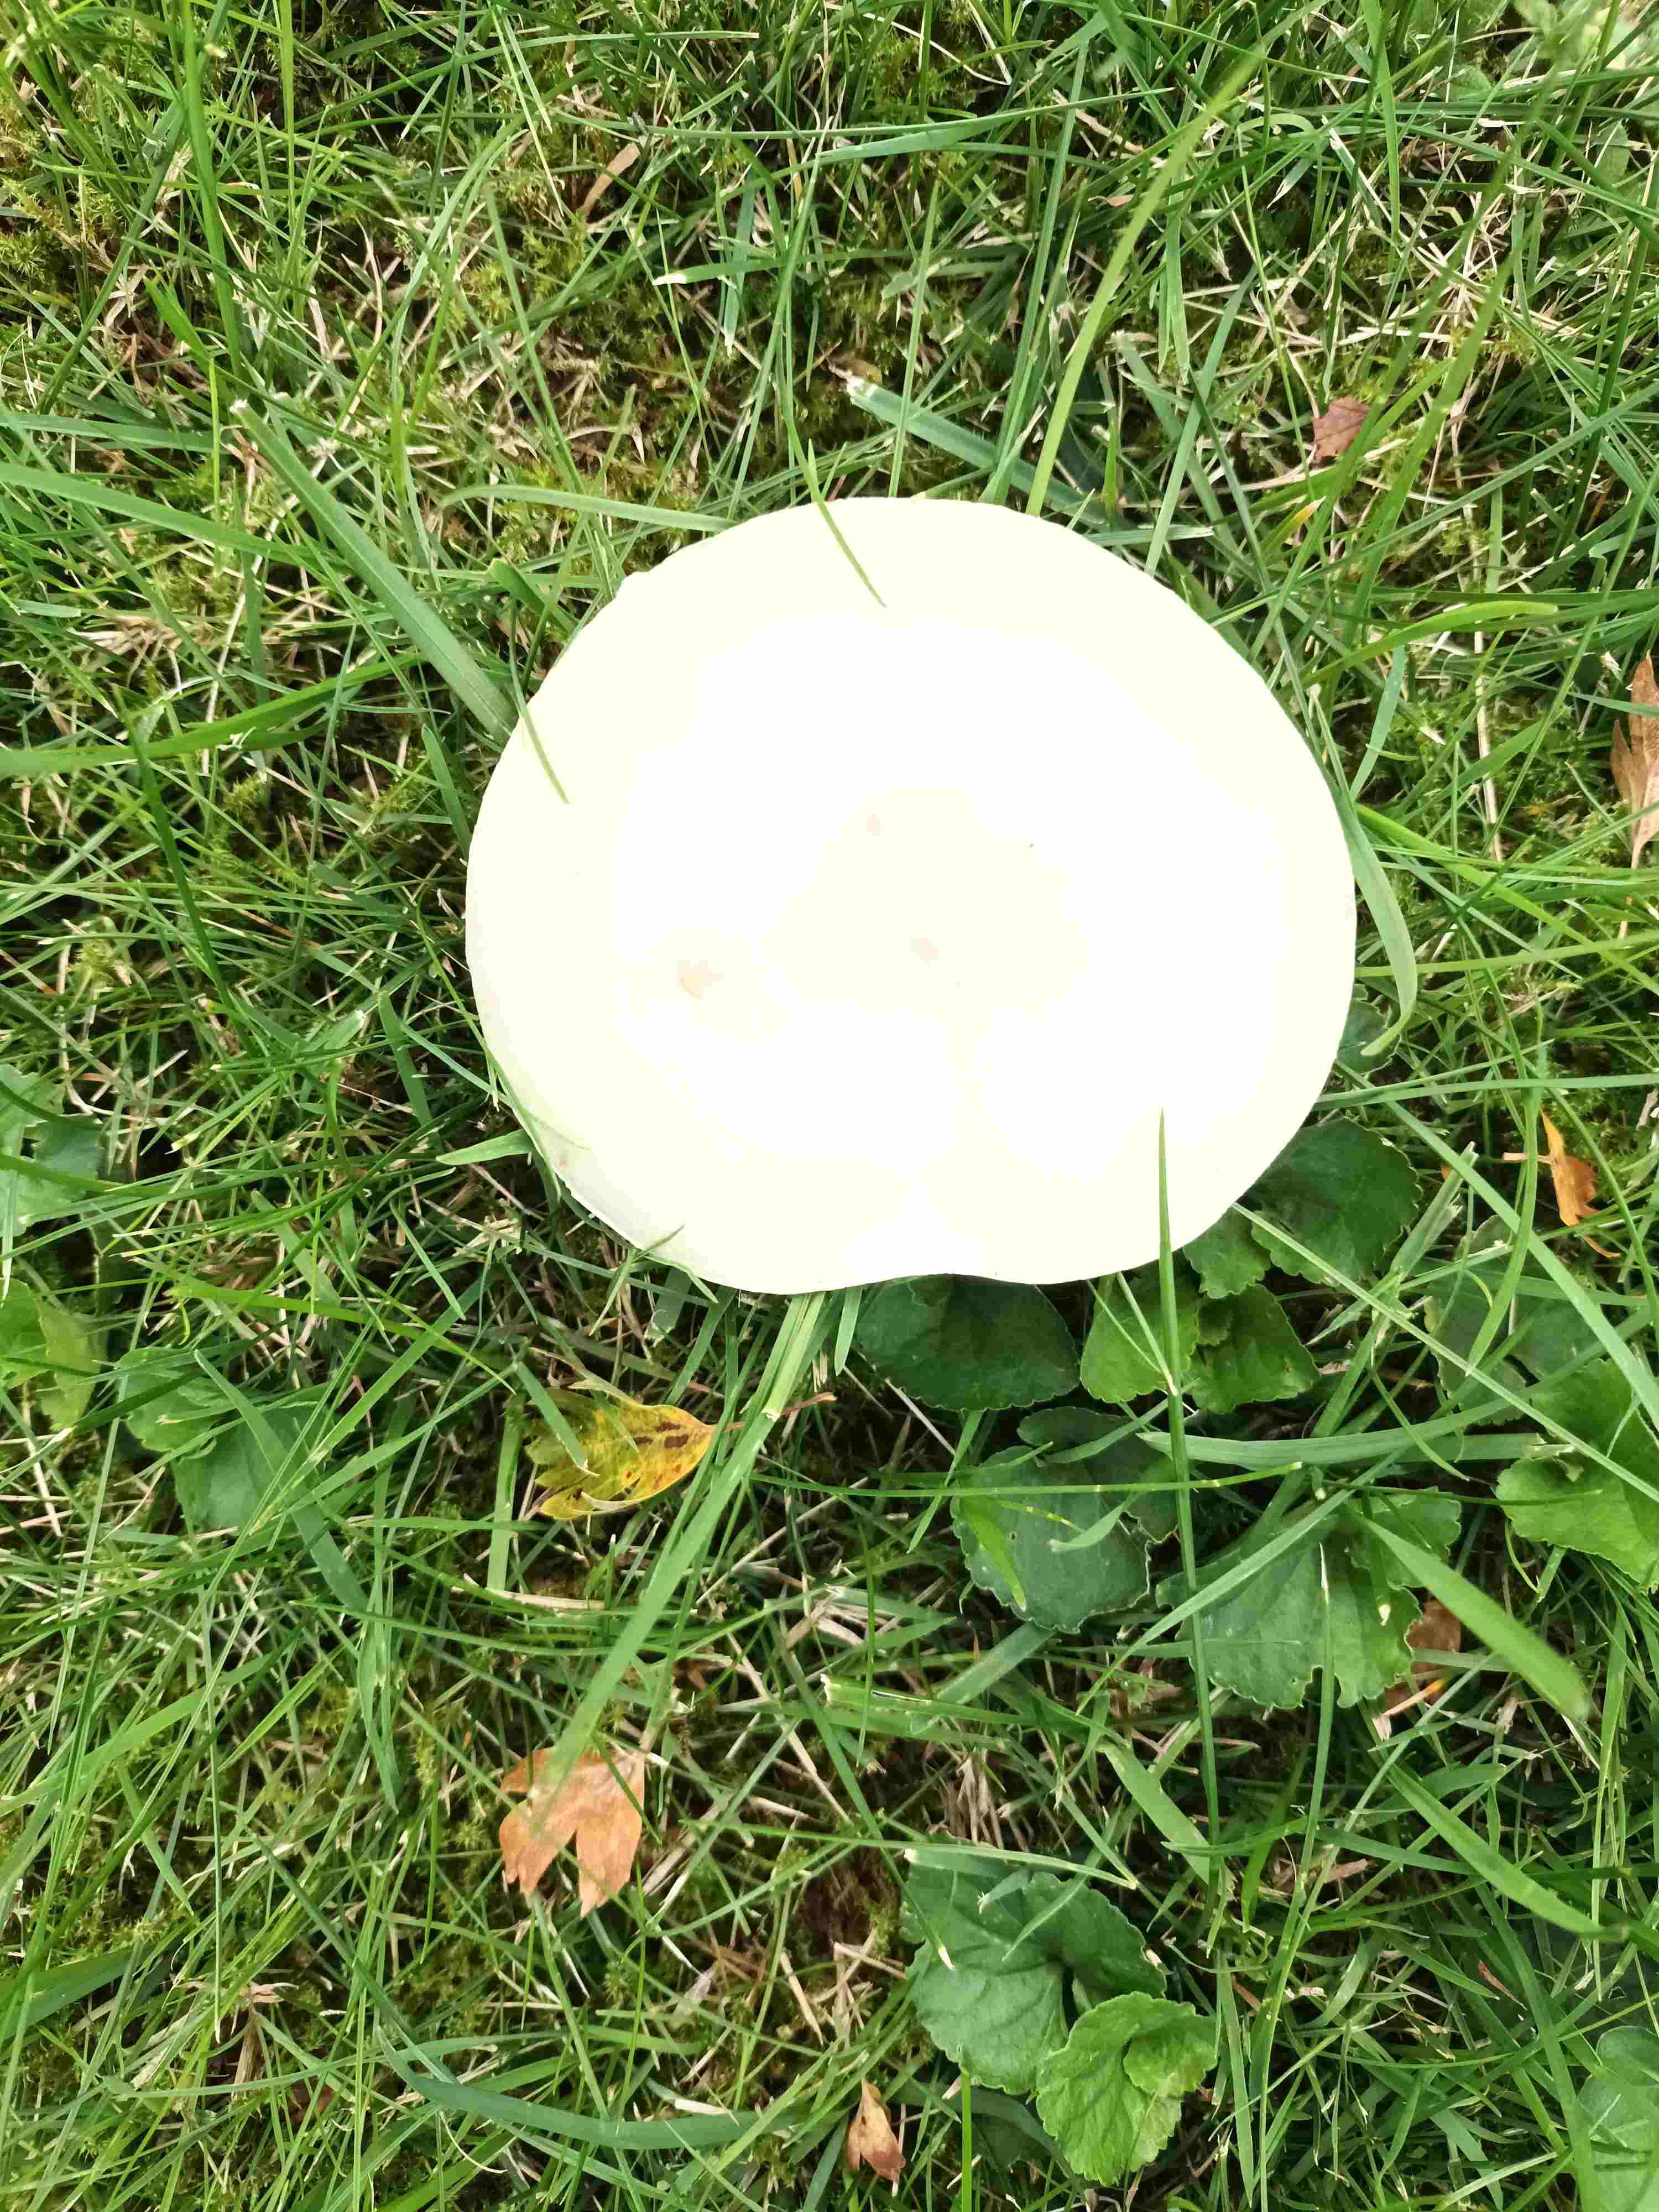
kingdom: Fungi
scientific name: Fungi
